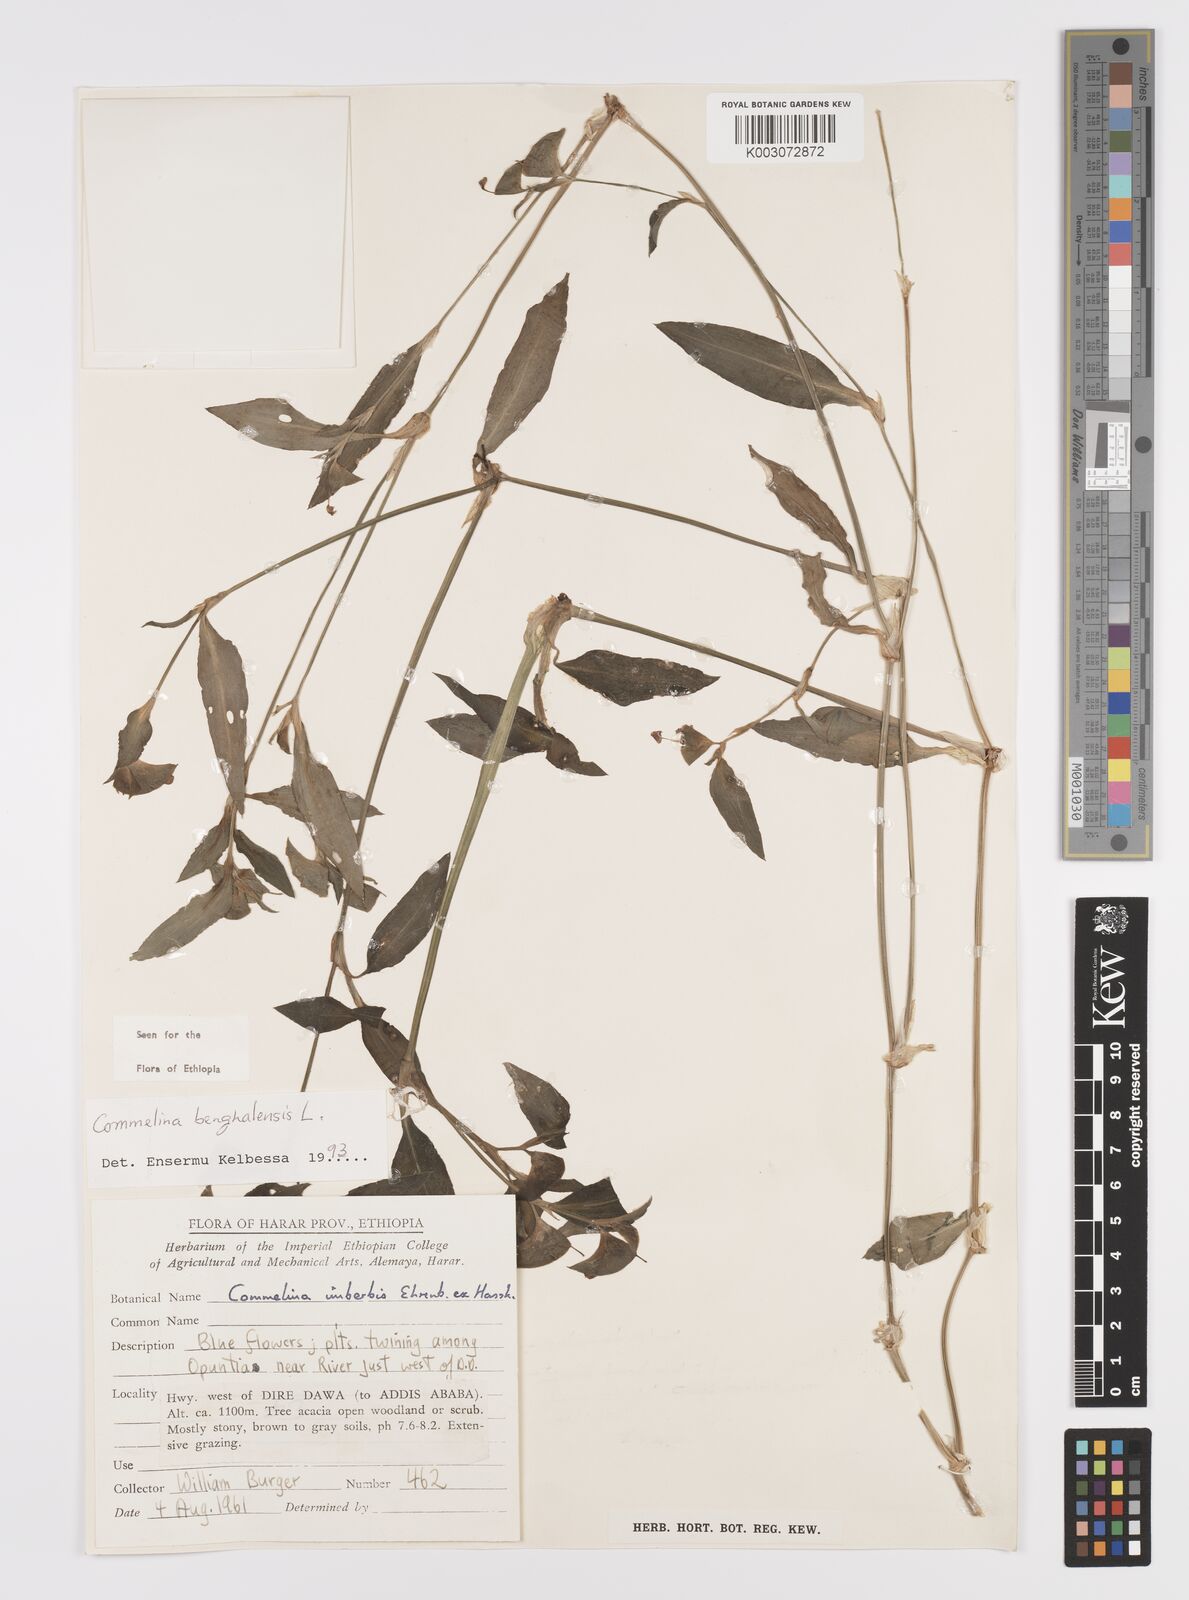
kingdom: Plantae
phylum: Tracheophyta
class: Liliopsida
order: Commelinales
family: Commelinaceae
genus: Commelina
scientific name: Commelina benghalensis
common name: Jio
